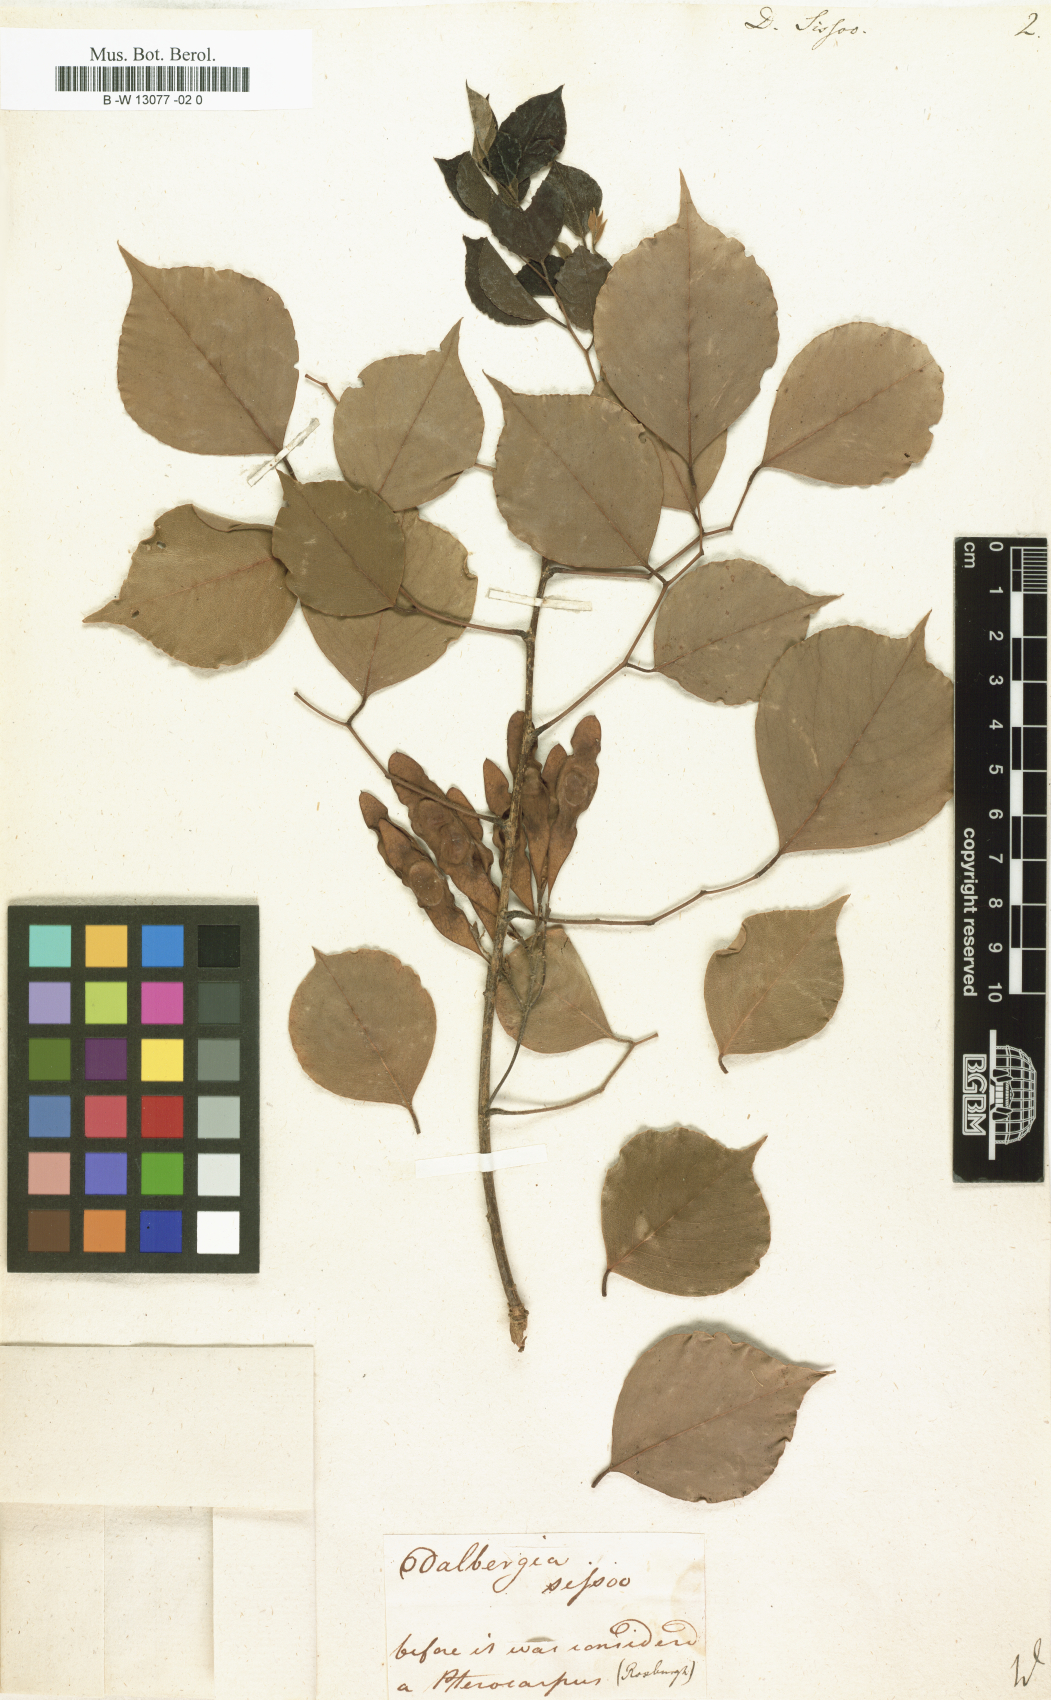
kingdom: Plantae
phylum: Tracheophyta
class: Magnoliopsida
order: Fabales
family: Fabaceae
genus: Dalbergia
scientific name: Dalbergia sissoo
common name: Indian rosewood
